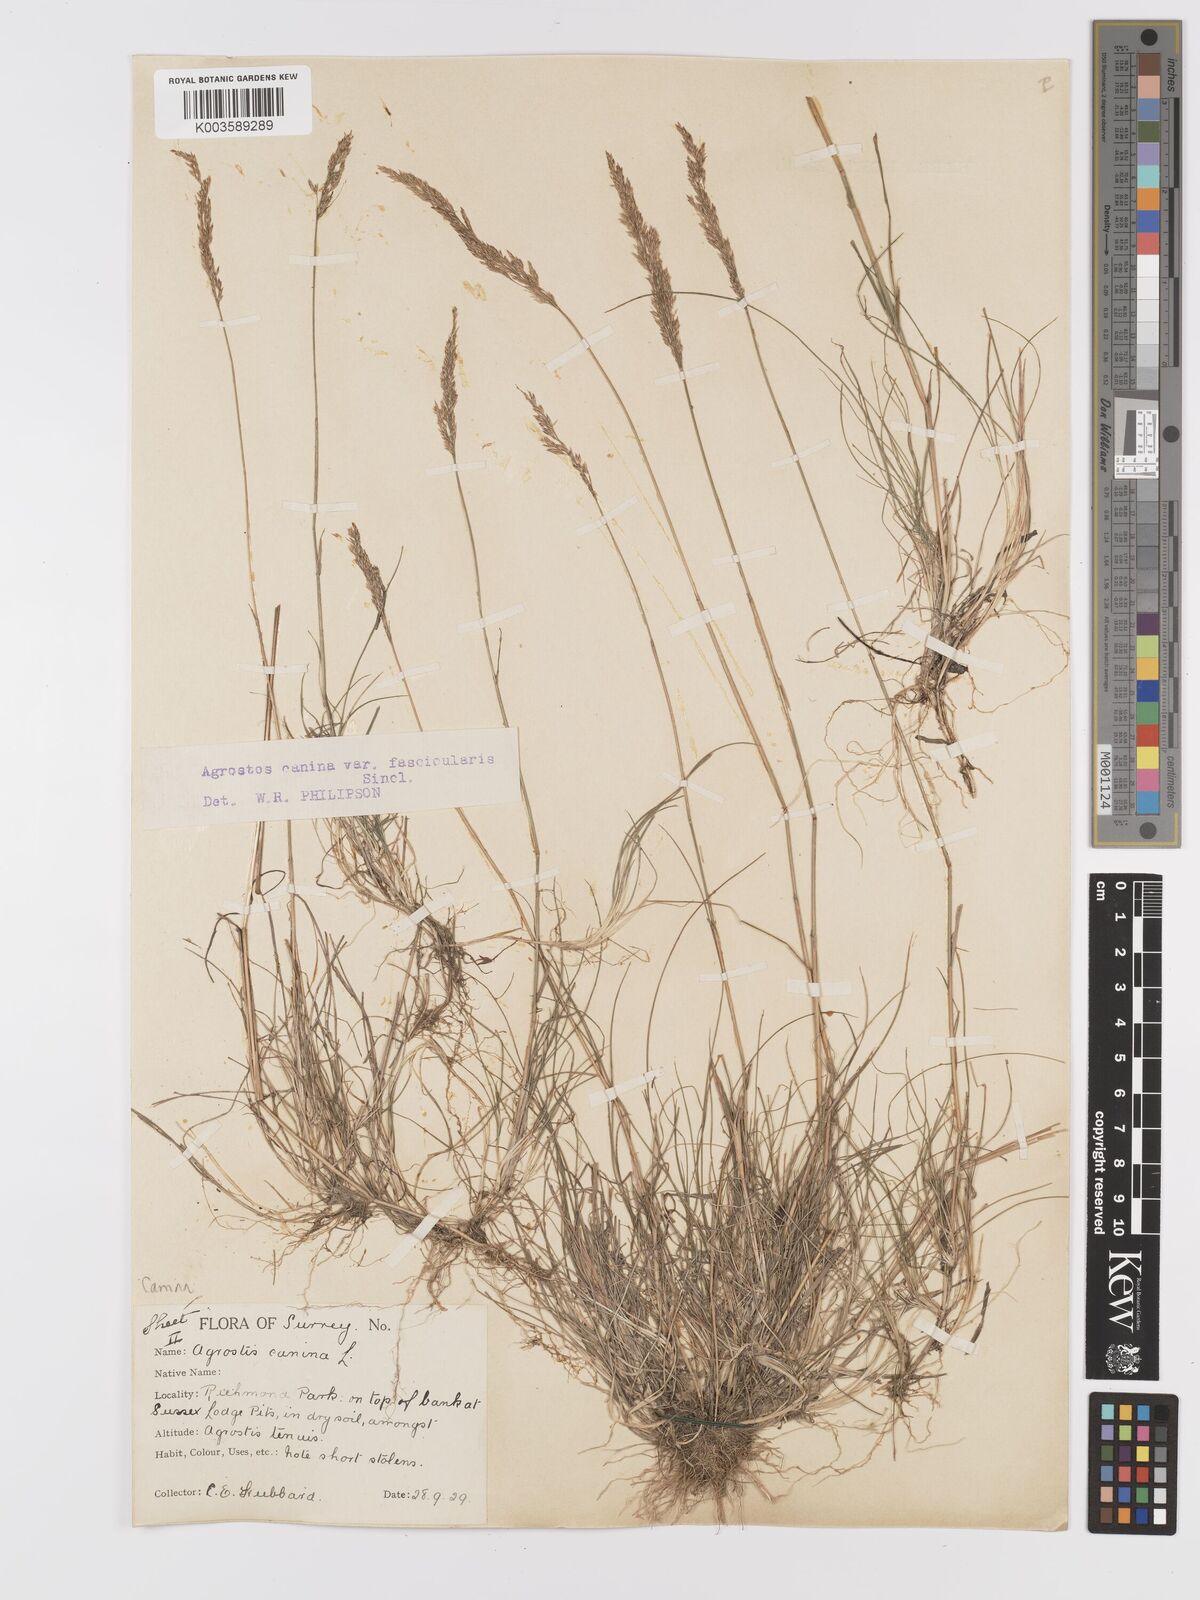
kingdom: Plantae
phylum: Tracheophyta
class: Liliopsida
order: Poales
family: Poaceae
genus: Agrostis
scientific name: Agrostis canina
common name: Velvet bent
